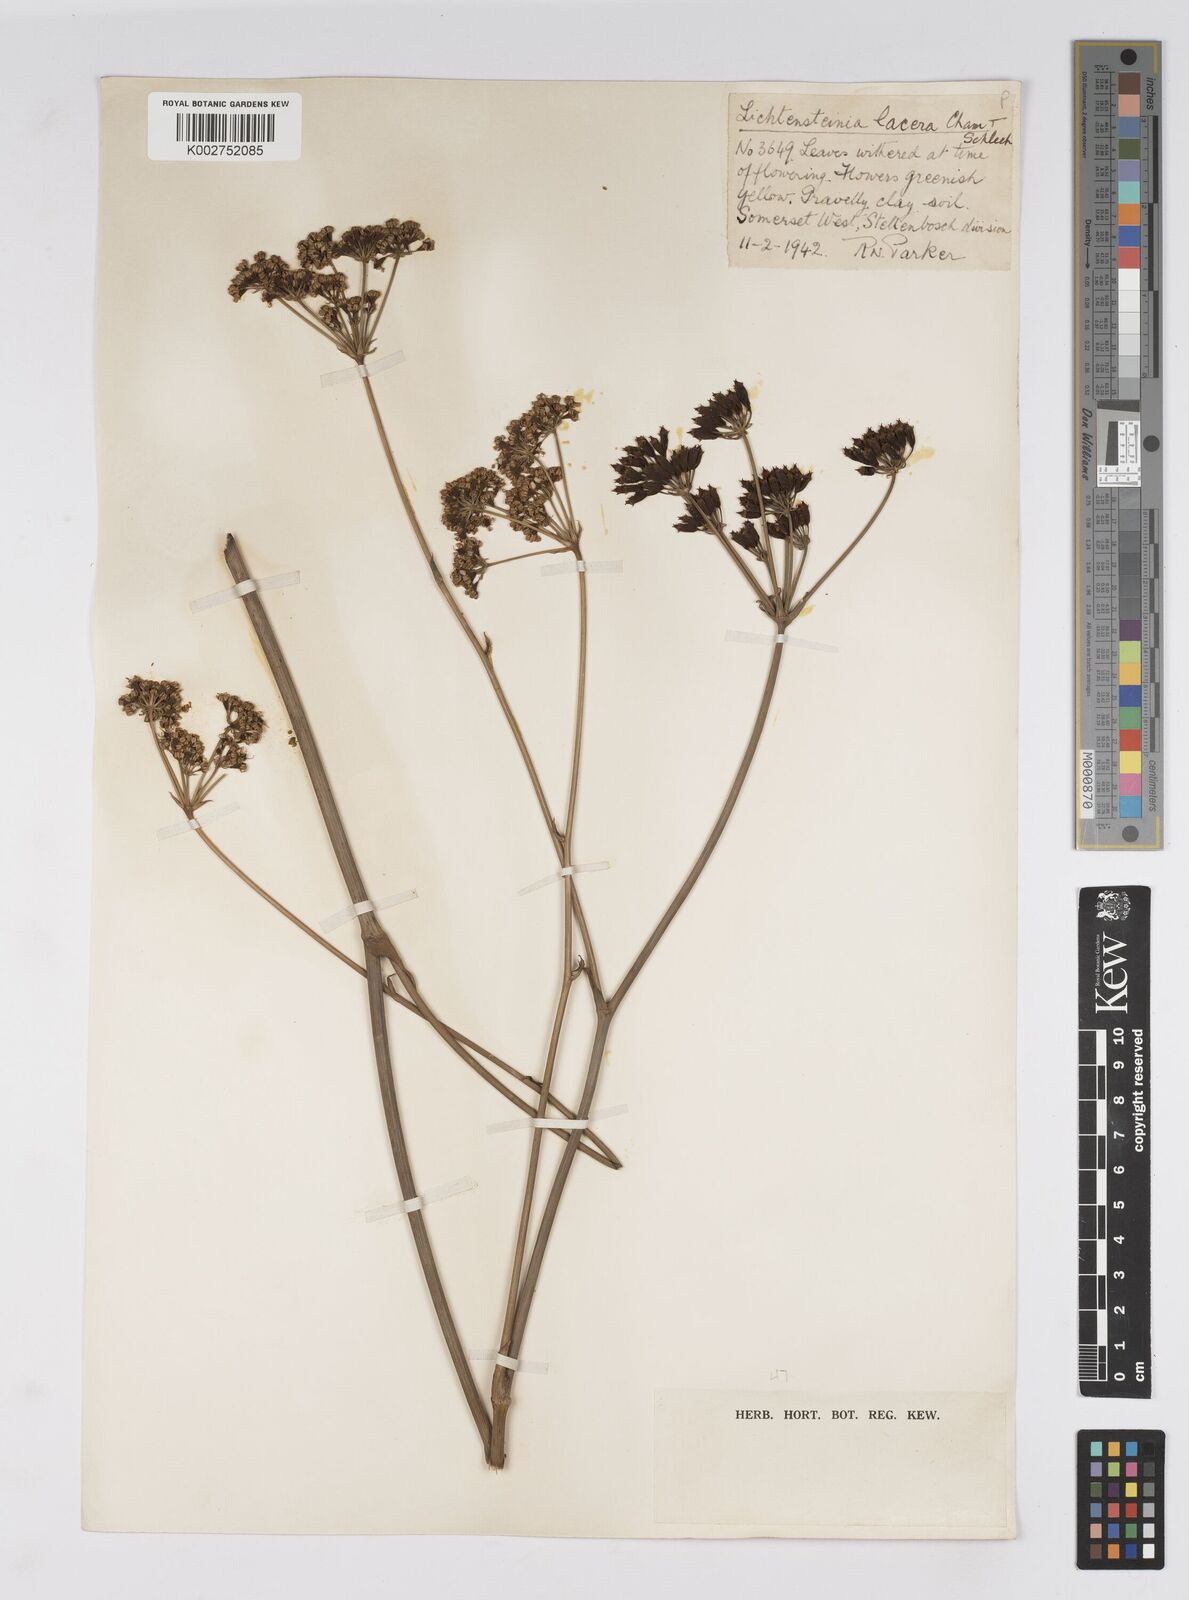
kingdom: Plantae
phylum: Tracheophyta
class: Magnoliopsida
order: Apiales
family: Apiaceae
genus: Lichtensteinia
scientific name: Lichtensteinia trifida
